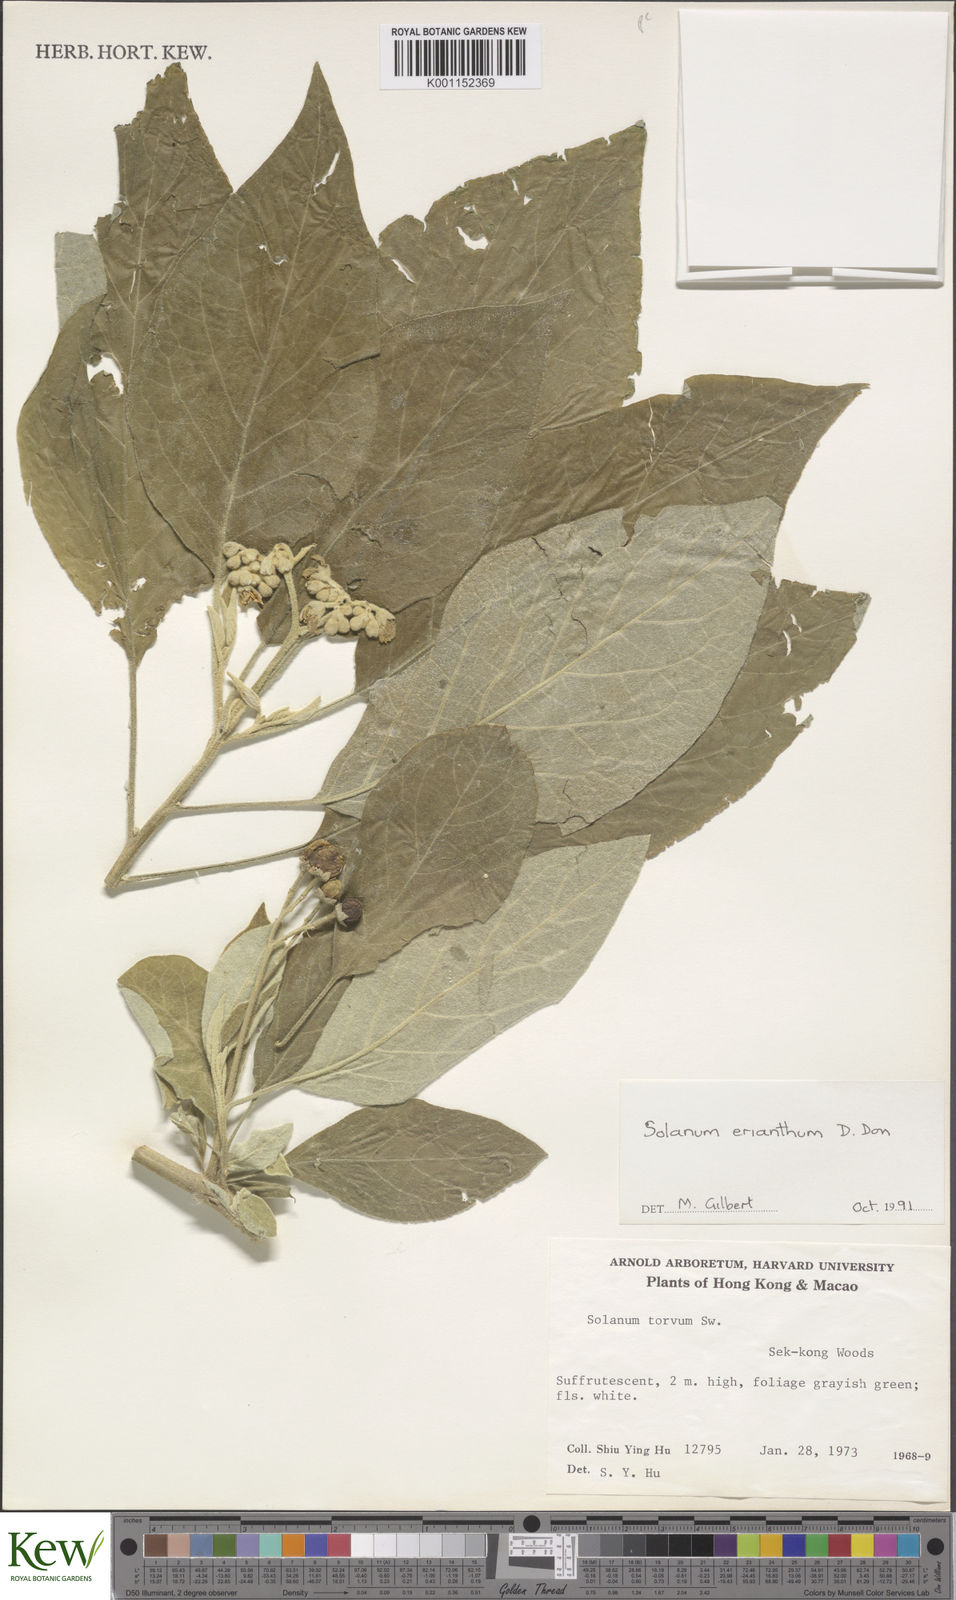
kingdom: Plantae
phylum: Tracheophyta
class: Magnoliopsida
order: Solanales
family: Solanaceae
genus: Solanum
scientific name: Solanum erianthum
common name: Tobacco-tree
